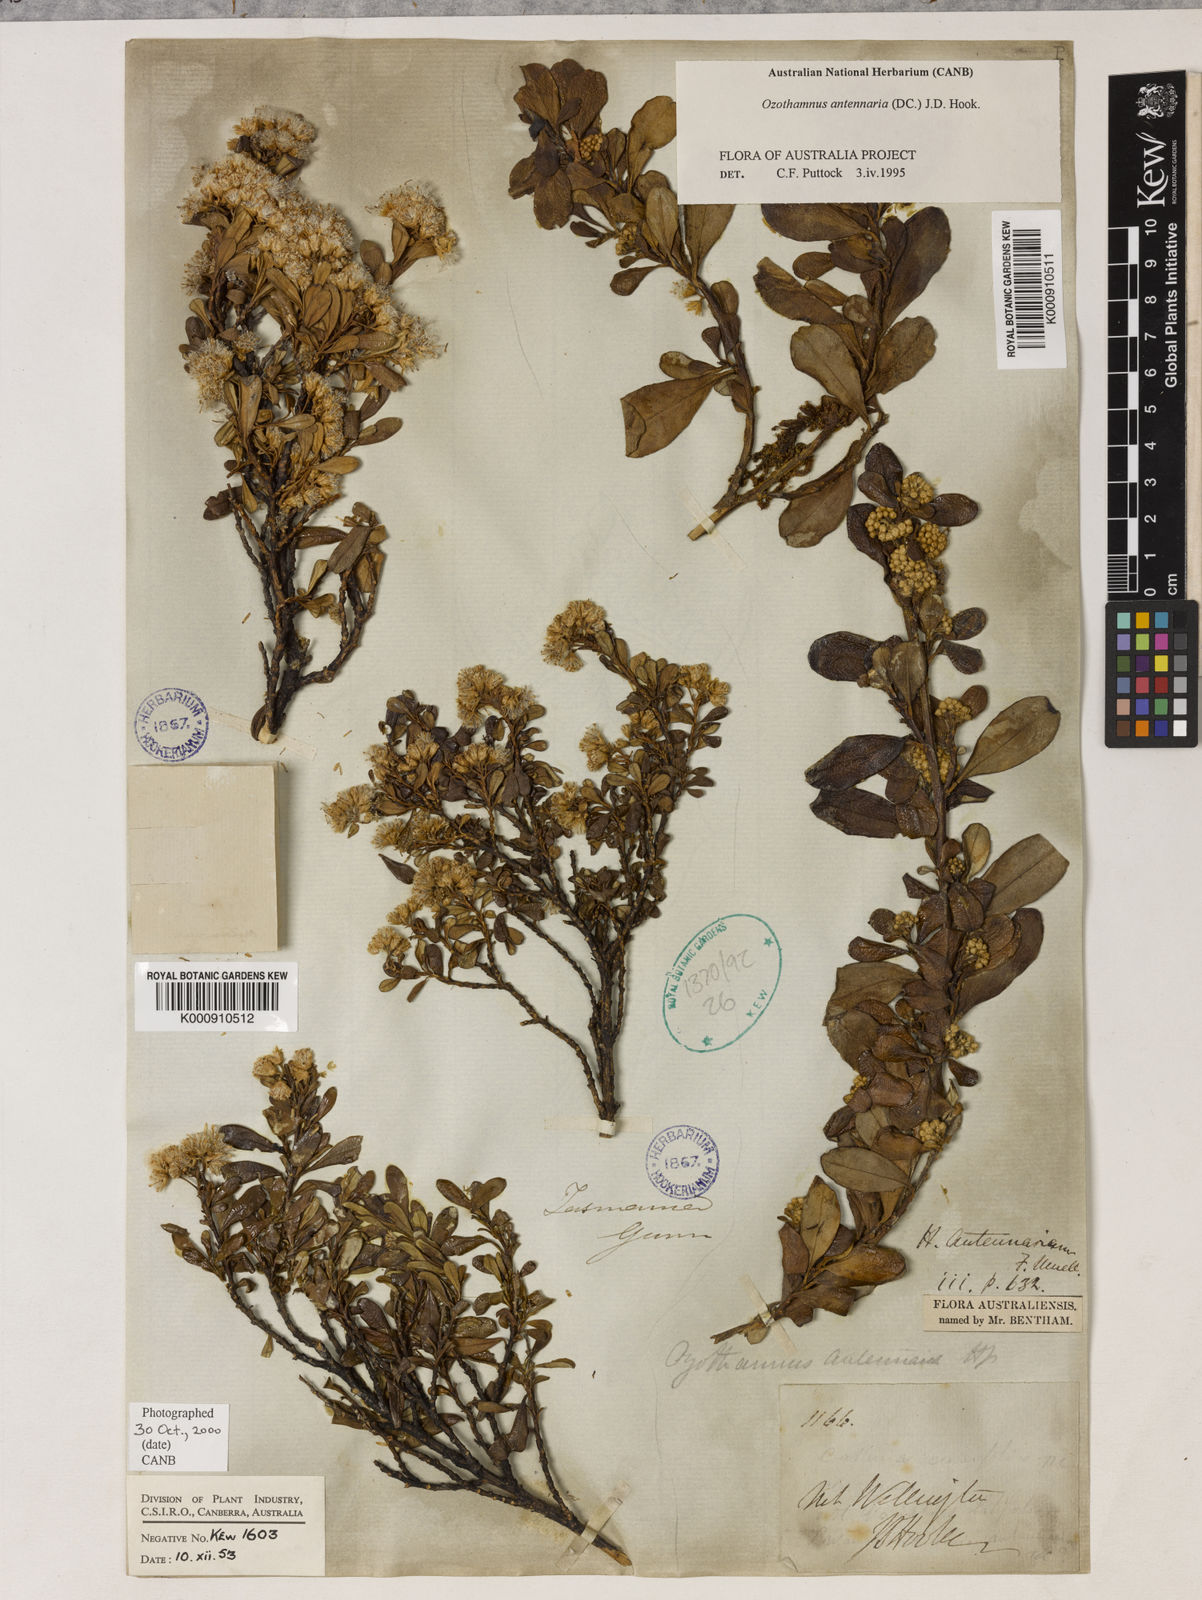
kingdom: Plantae
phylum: Tracheophyta
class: Magnoliopsida
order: Asterales
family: Asteraceae
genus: Ozothamnus
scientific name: Ozothamnus antennaria
